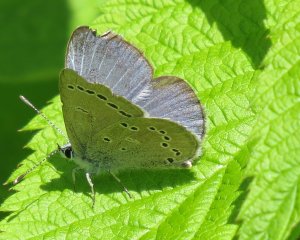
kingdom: Animalia
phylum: Arthropoda
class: Insecta
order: Lepidoptera
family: Lycaenidae
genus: Glaucopsyche
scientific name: Glaucopsyche lygdamus
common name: Silvery Blue
